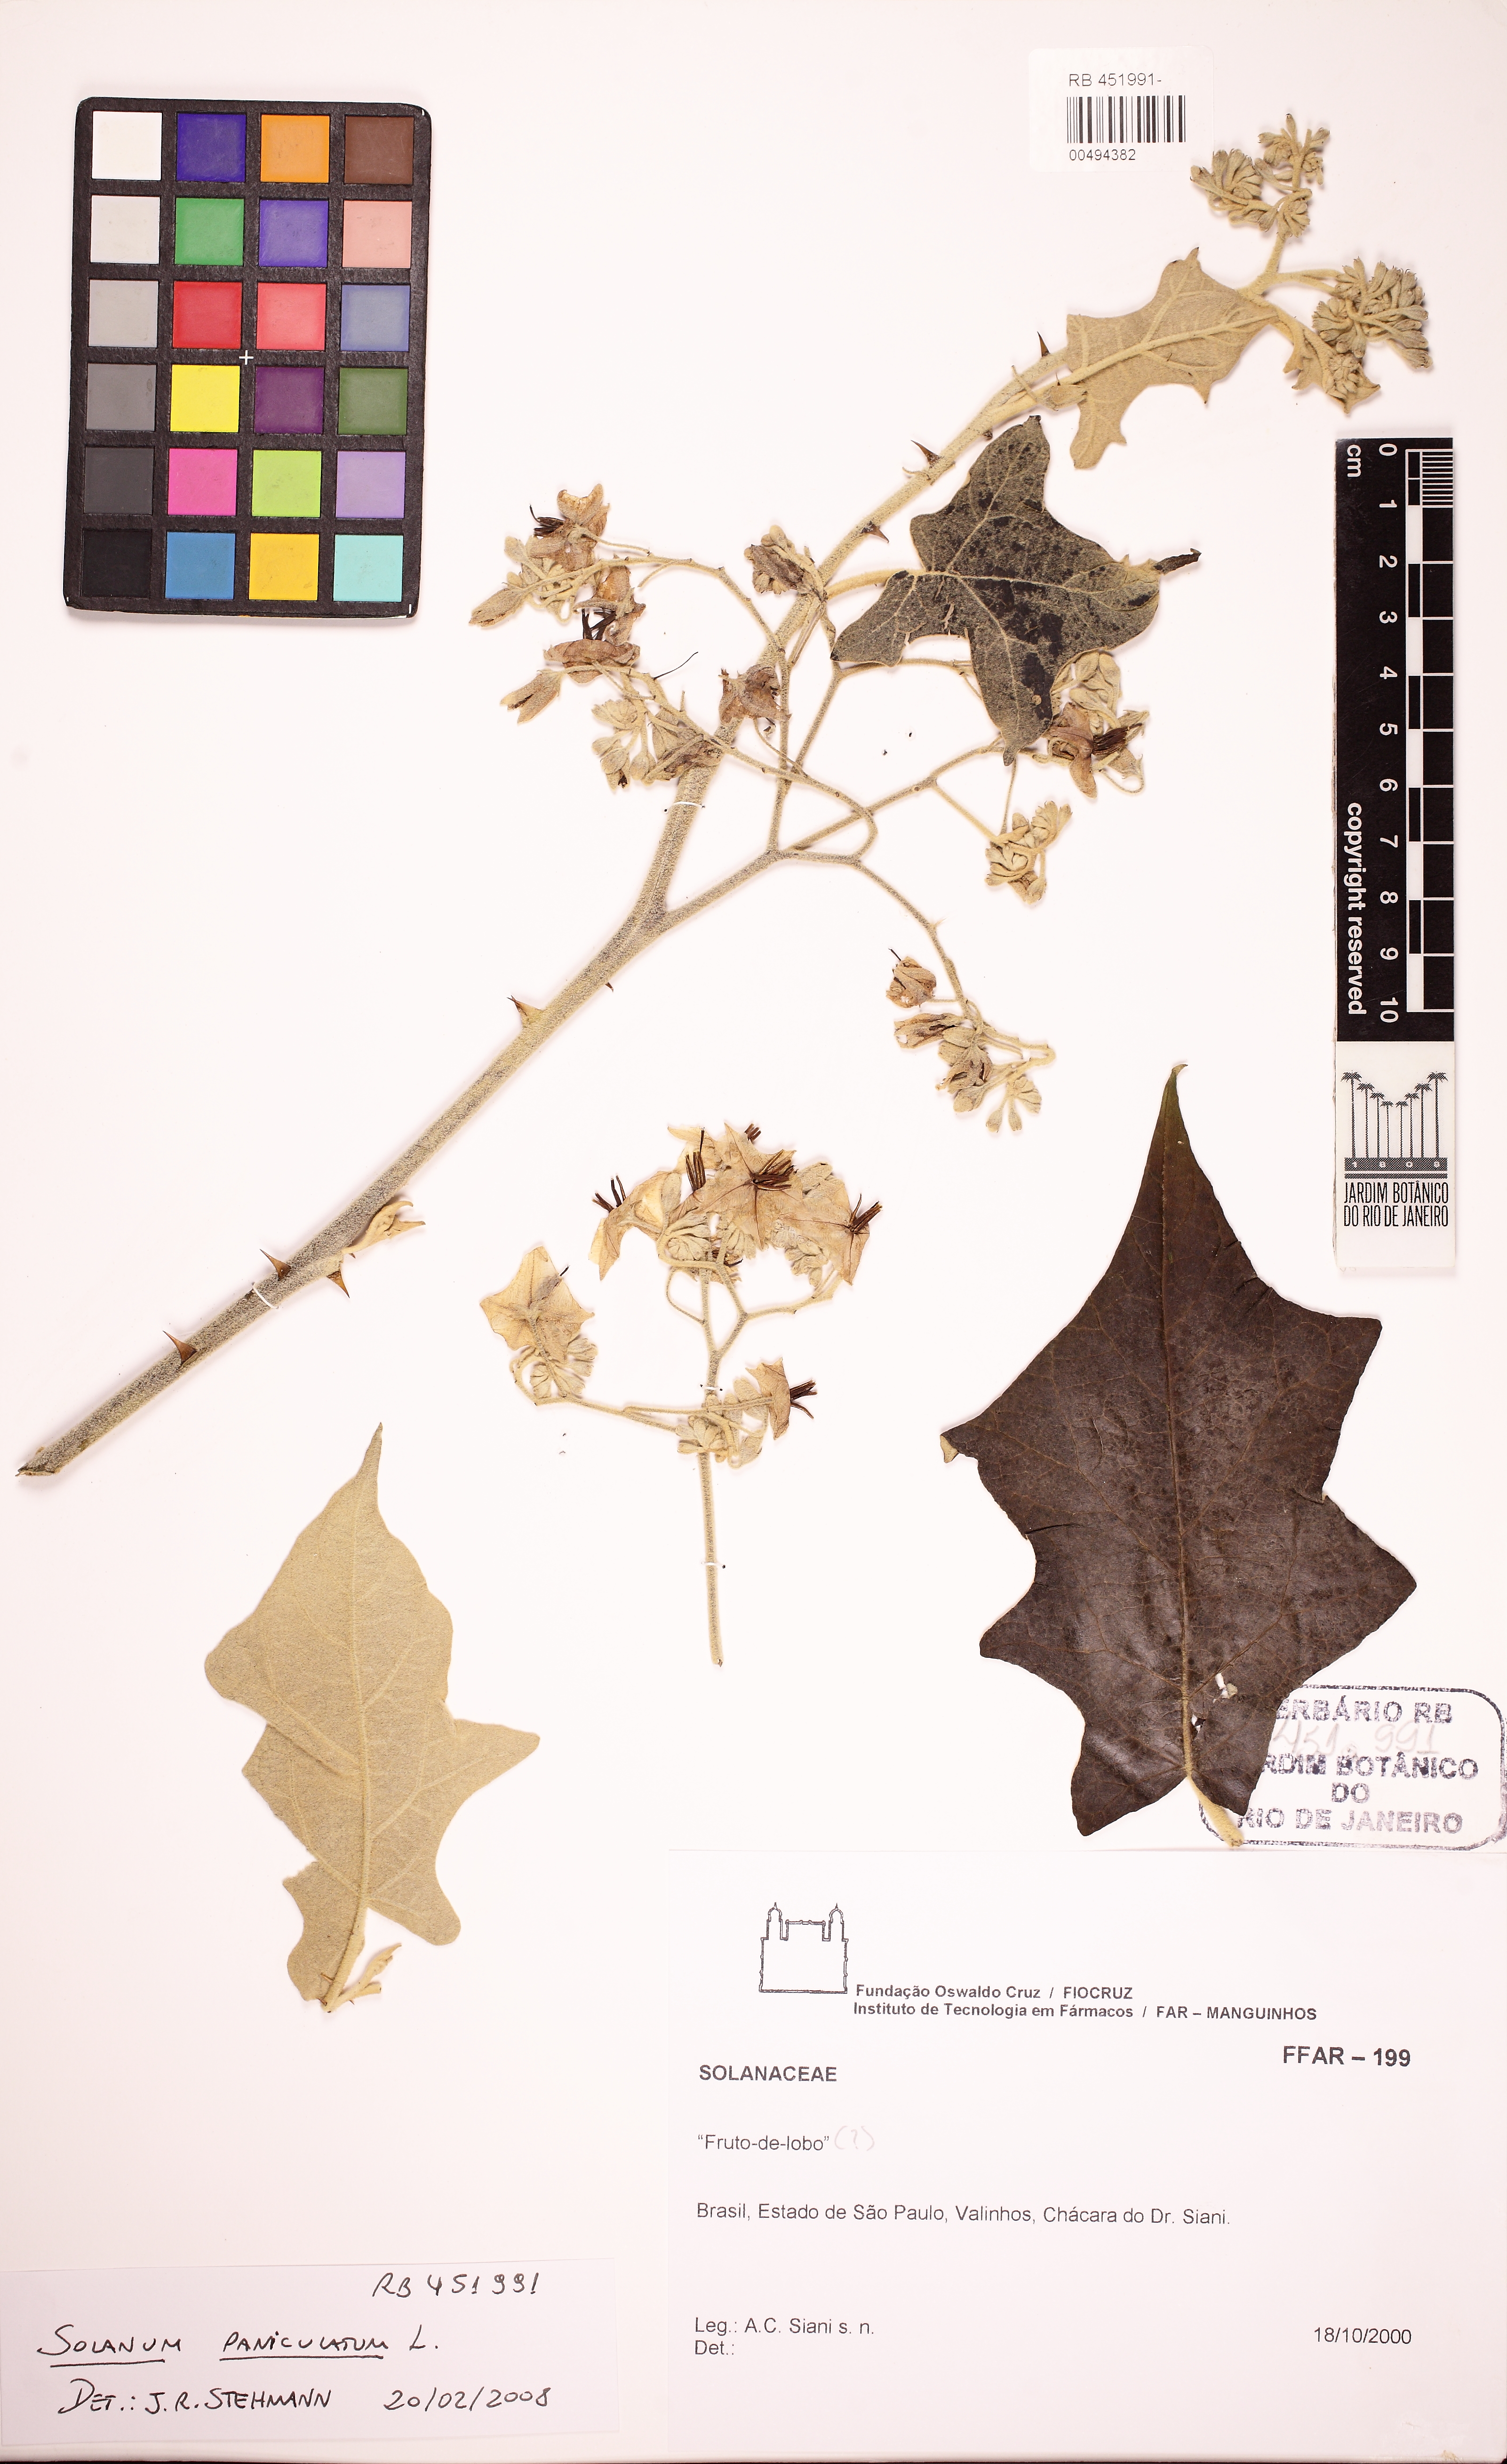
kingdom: Plantae
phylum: Tracheophyta
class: Magnoliopsida
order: Solanales
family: Solanaceae
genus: Solanum
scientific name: Solanum paniculatum
